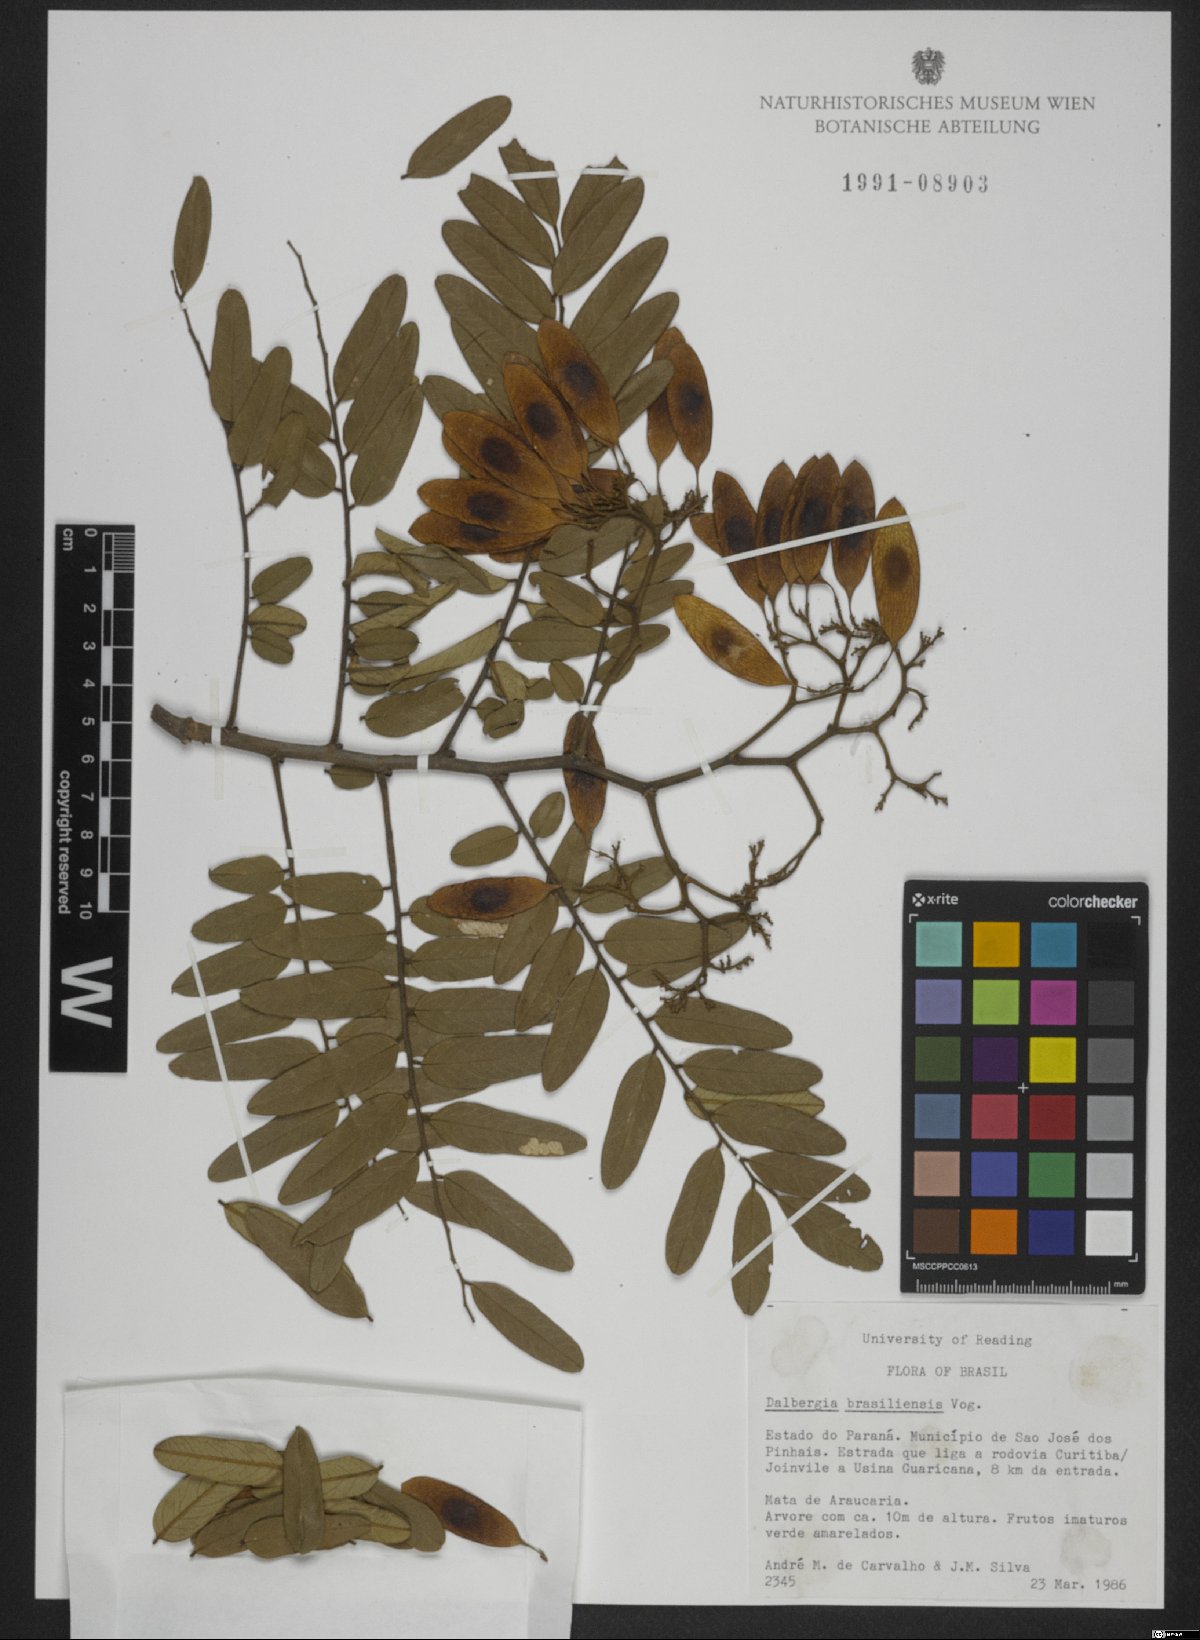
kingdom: Plantae
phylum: Tracheophyta
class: Magnoliopsida
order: Fabales
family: Fabaceae
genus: Dalbergia
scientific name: Dalbergia brasiliensis
